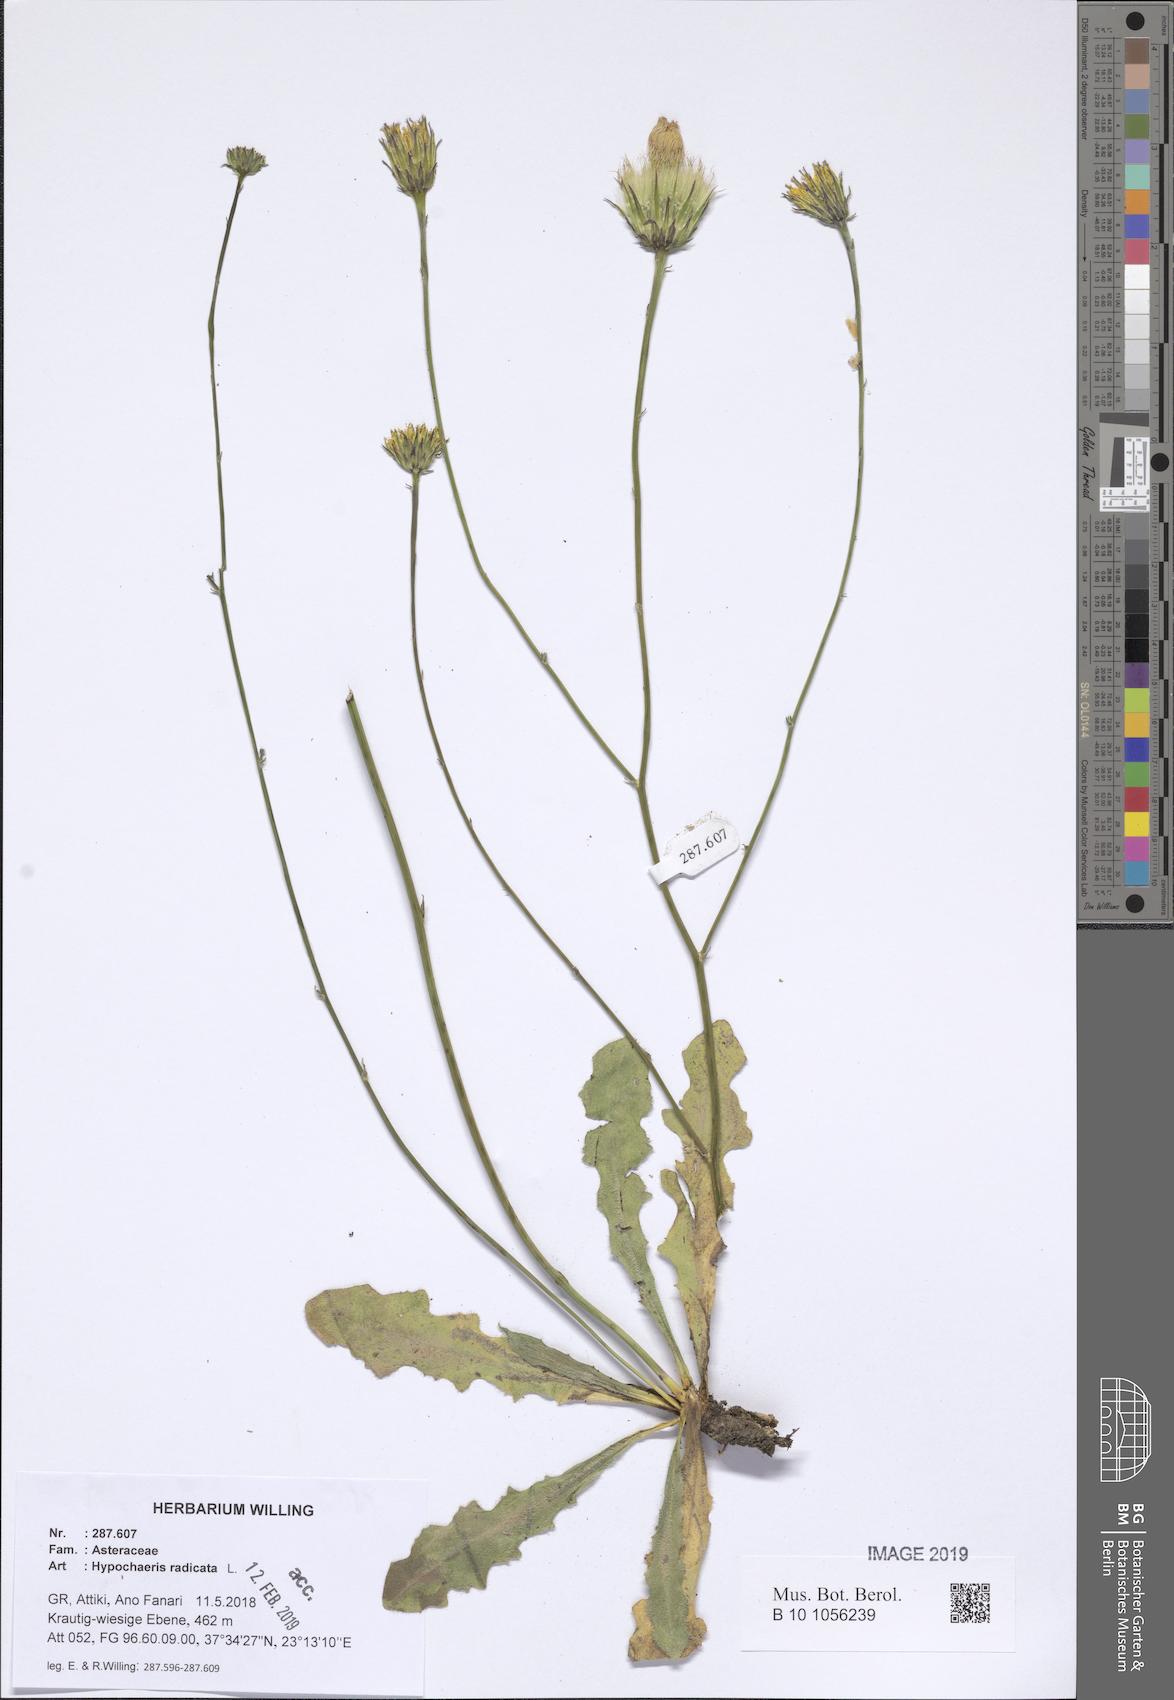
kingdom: Plantae
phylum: Tracheophyta
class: Magnoliopsida
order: Asterales
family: Asteraceae
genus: Hypochaeris
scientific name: Hypochaeris radicata
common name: Flatweed
